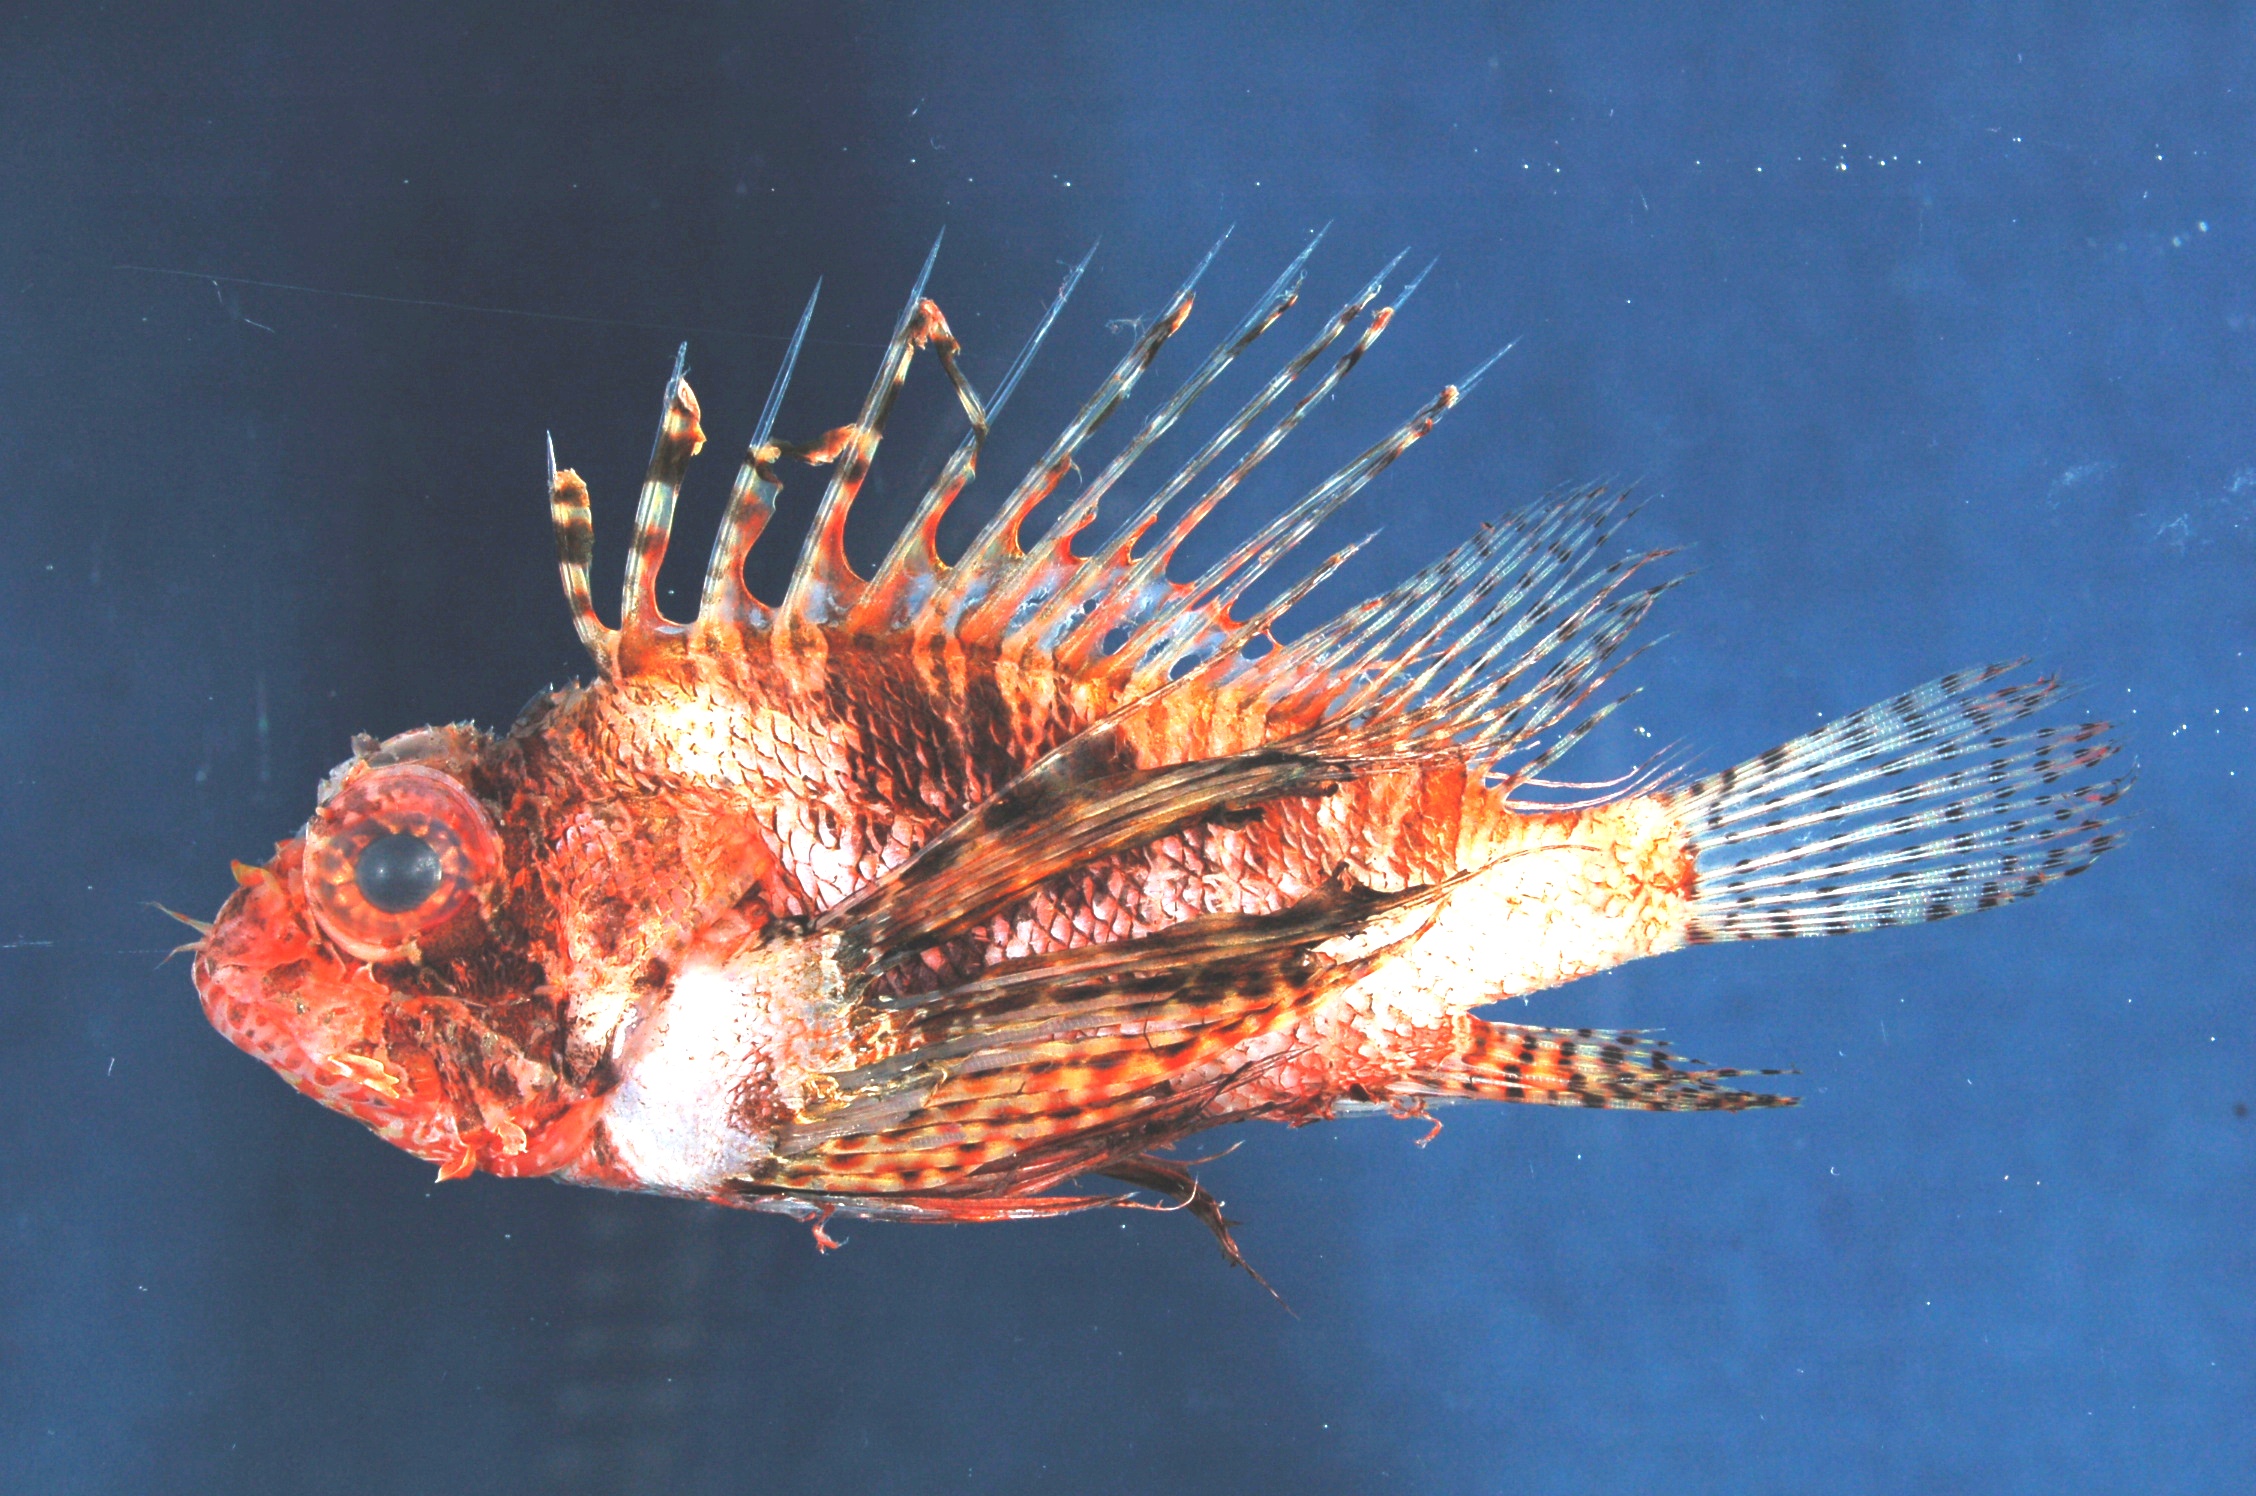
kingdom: Animalia
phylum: Chordata
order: Scorpaeniformes
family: Scorpaenidae
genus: Pterois
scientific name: Pterois mombasae
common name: Deepwater firefish
